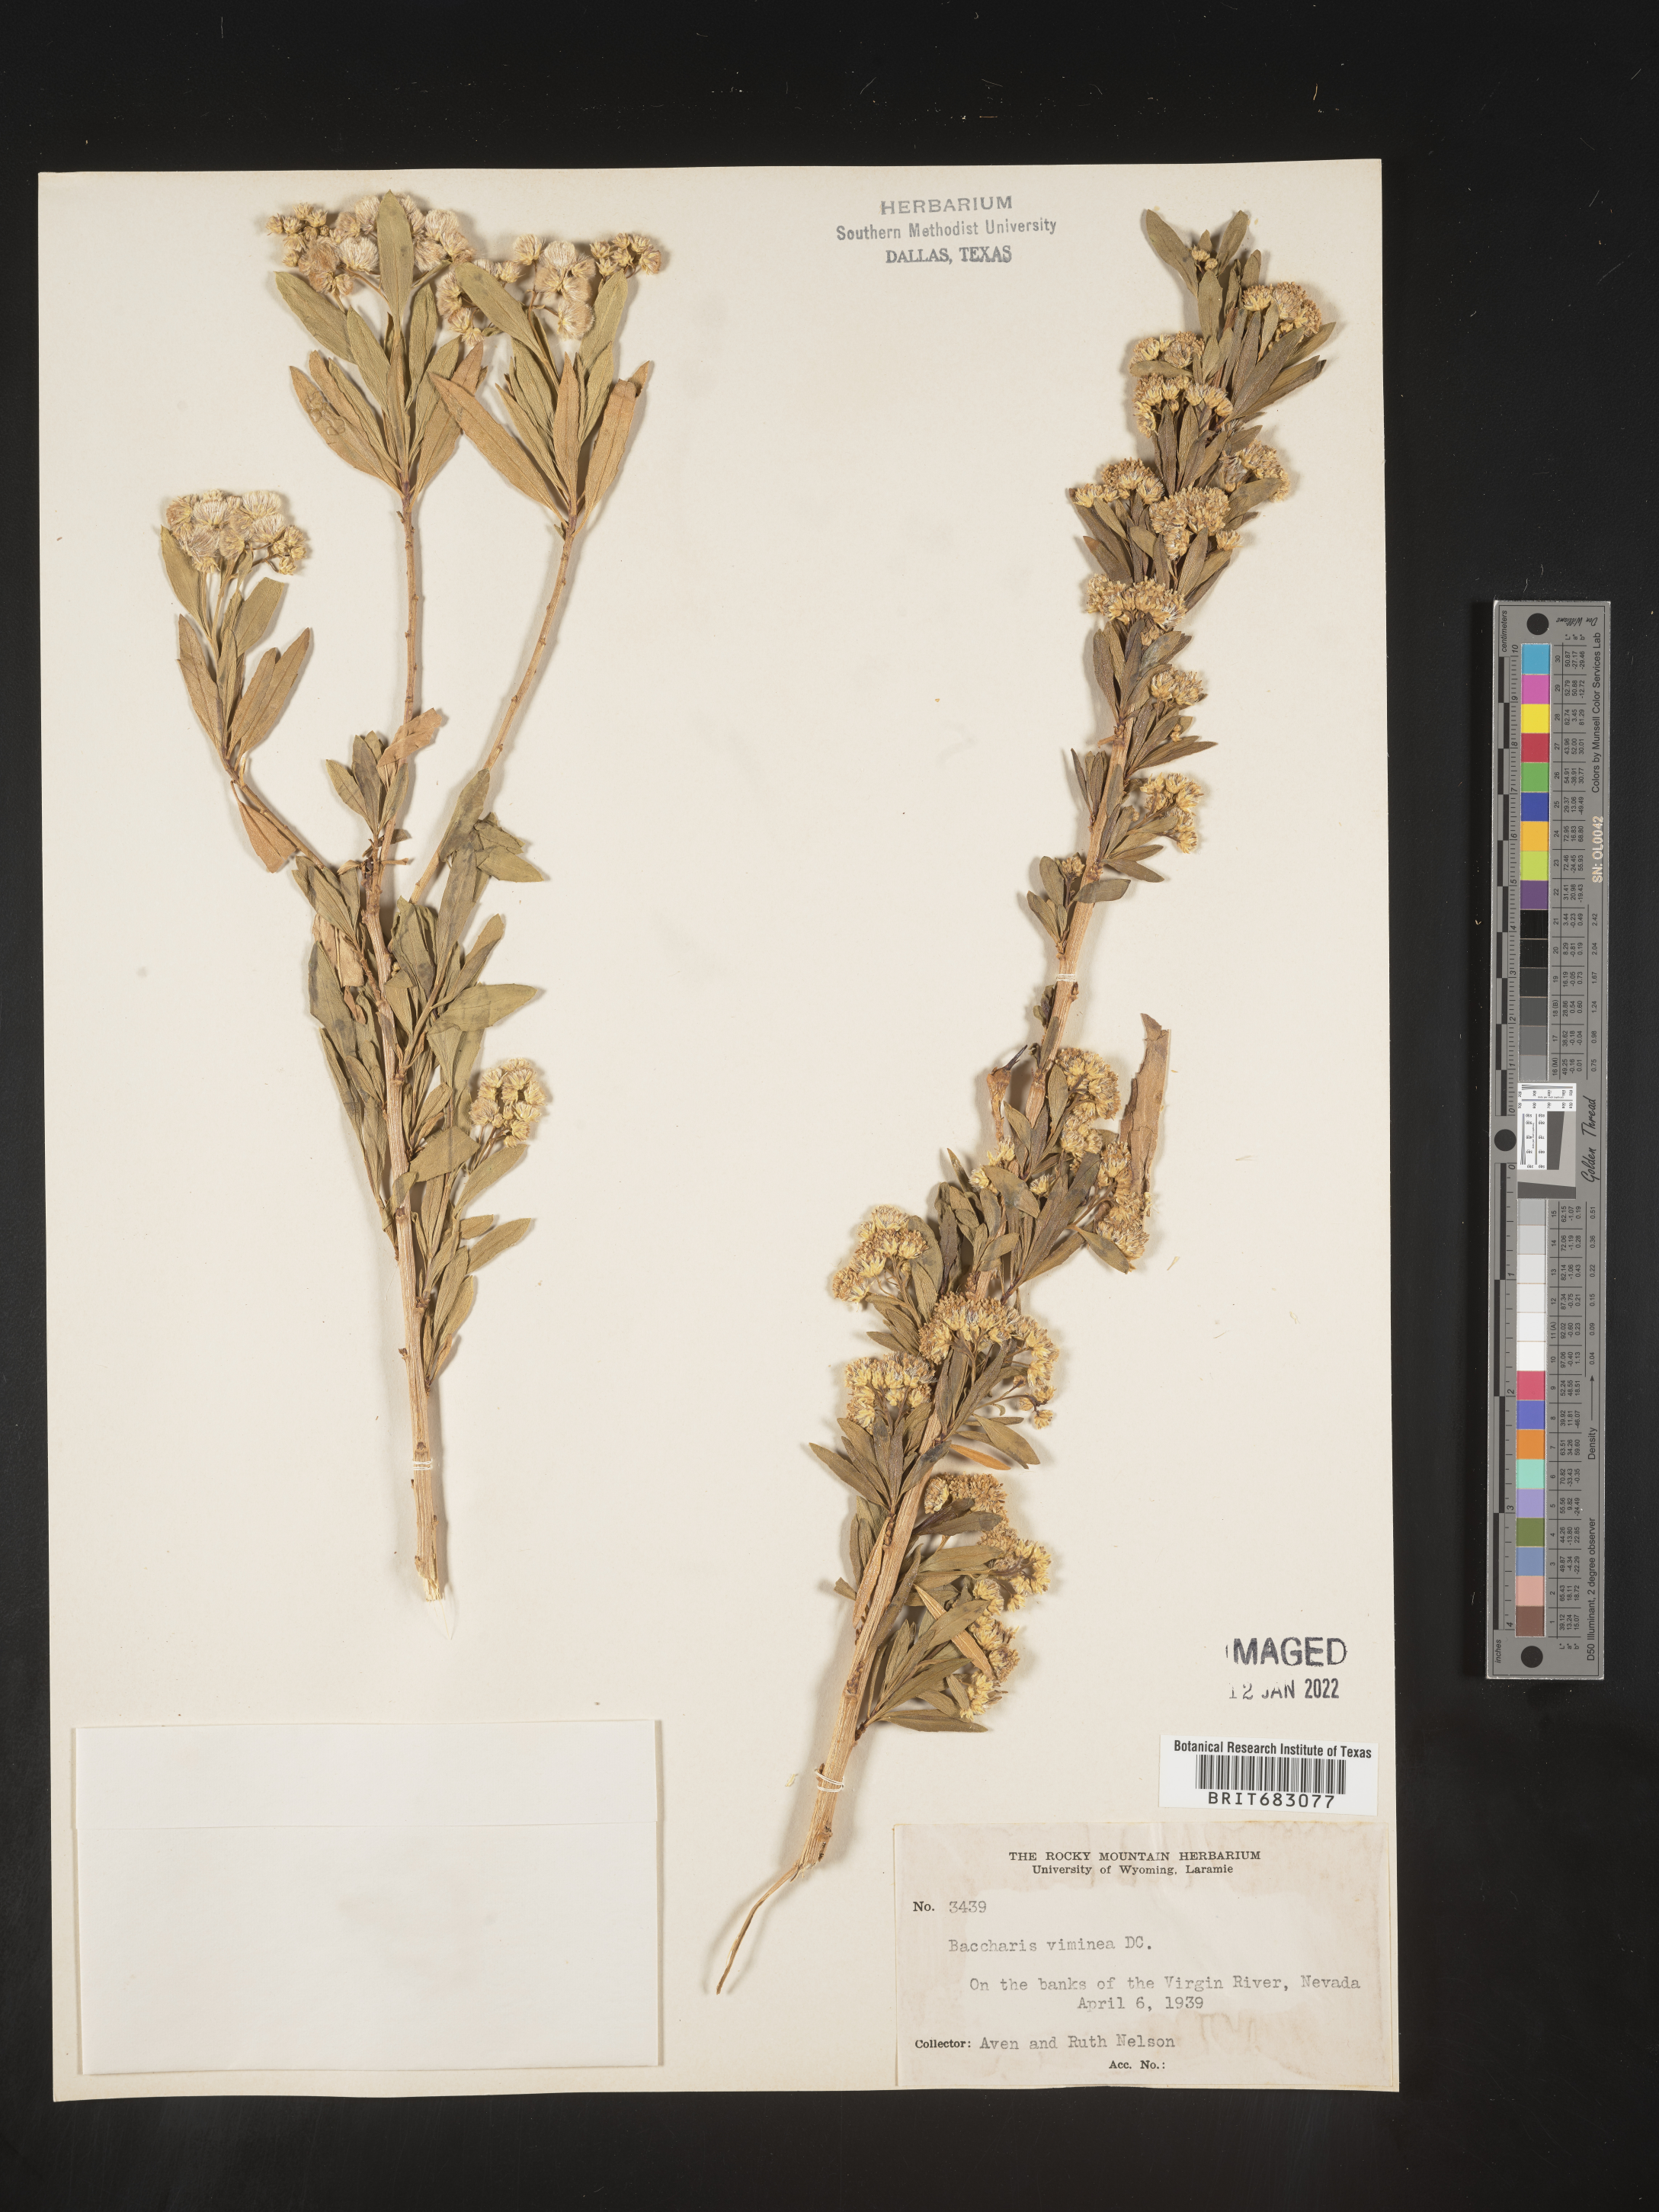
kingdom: Plantae
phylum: Tracheophyta
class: Magnoliopsida
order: Asterales
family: Asteraceae
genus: Baccharis
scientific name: Baccharis salicifolia
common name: Sticky baccharis
